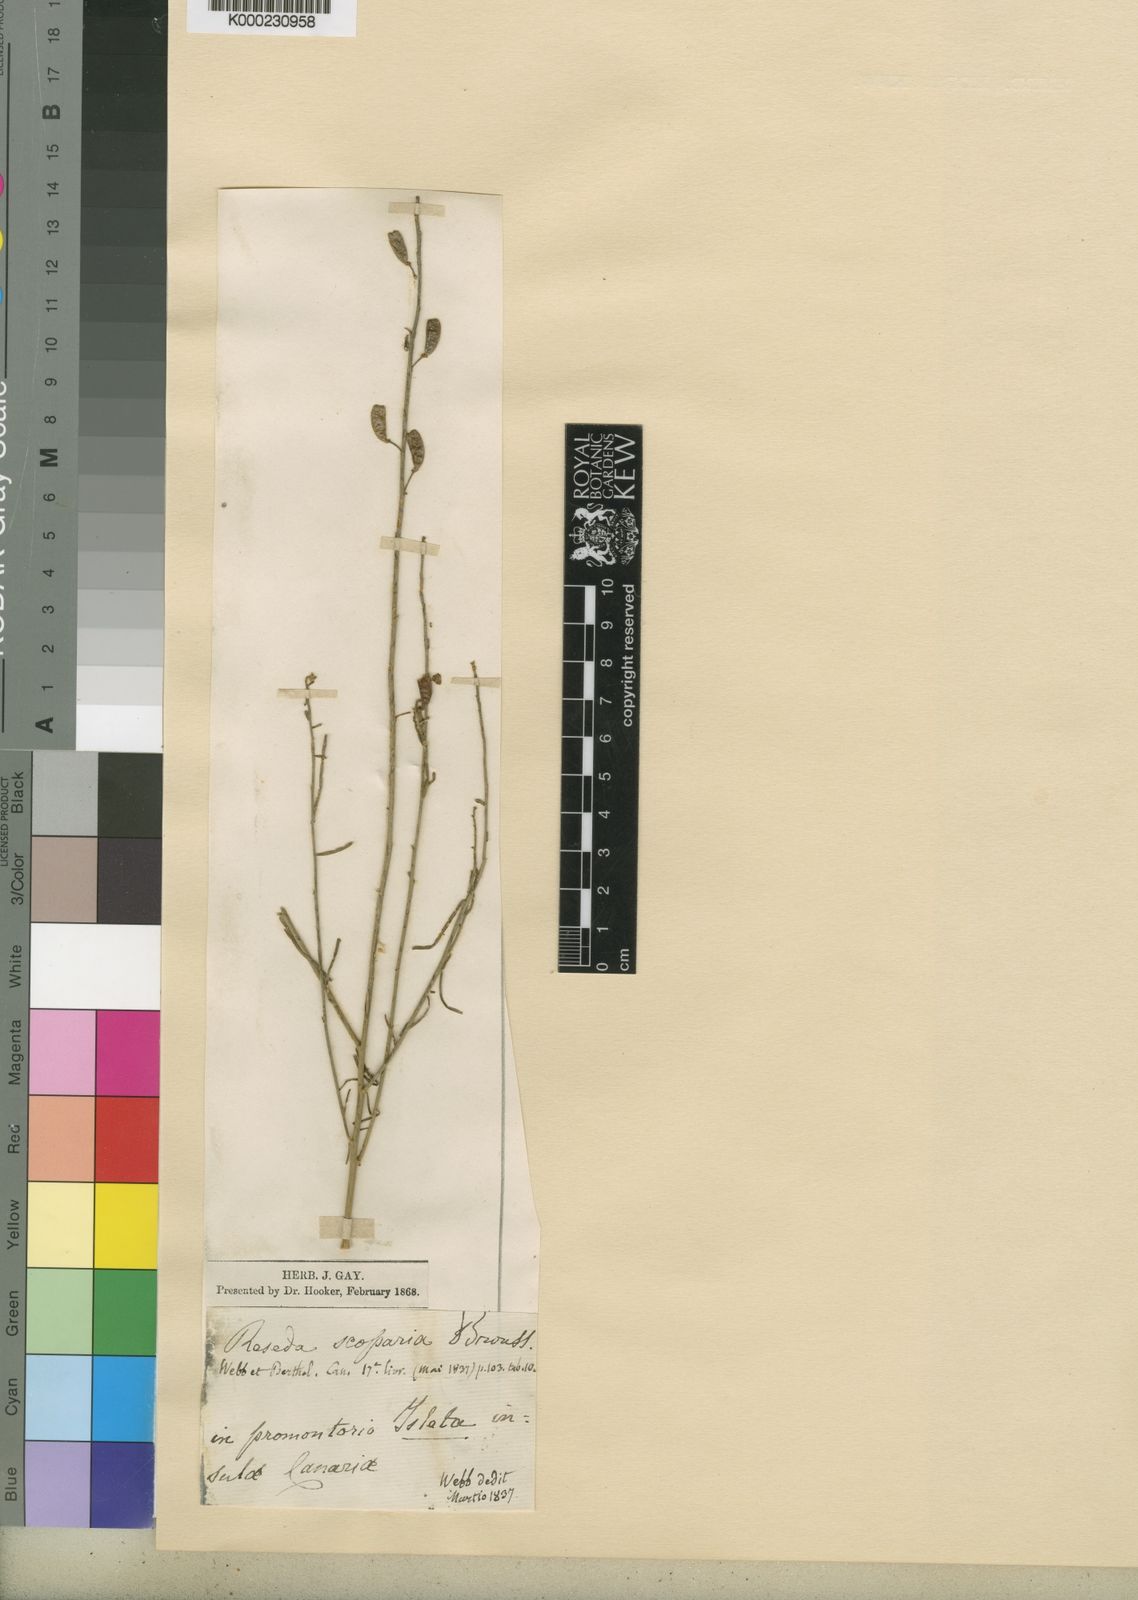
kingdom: Plantae
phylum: Tracheophyta
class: Magnoliopsida
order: Brassicales
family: Resedaceae
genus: Reseda
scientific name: Reseda
